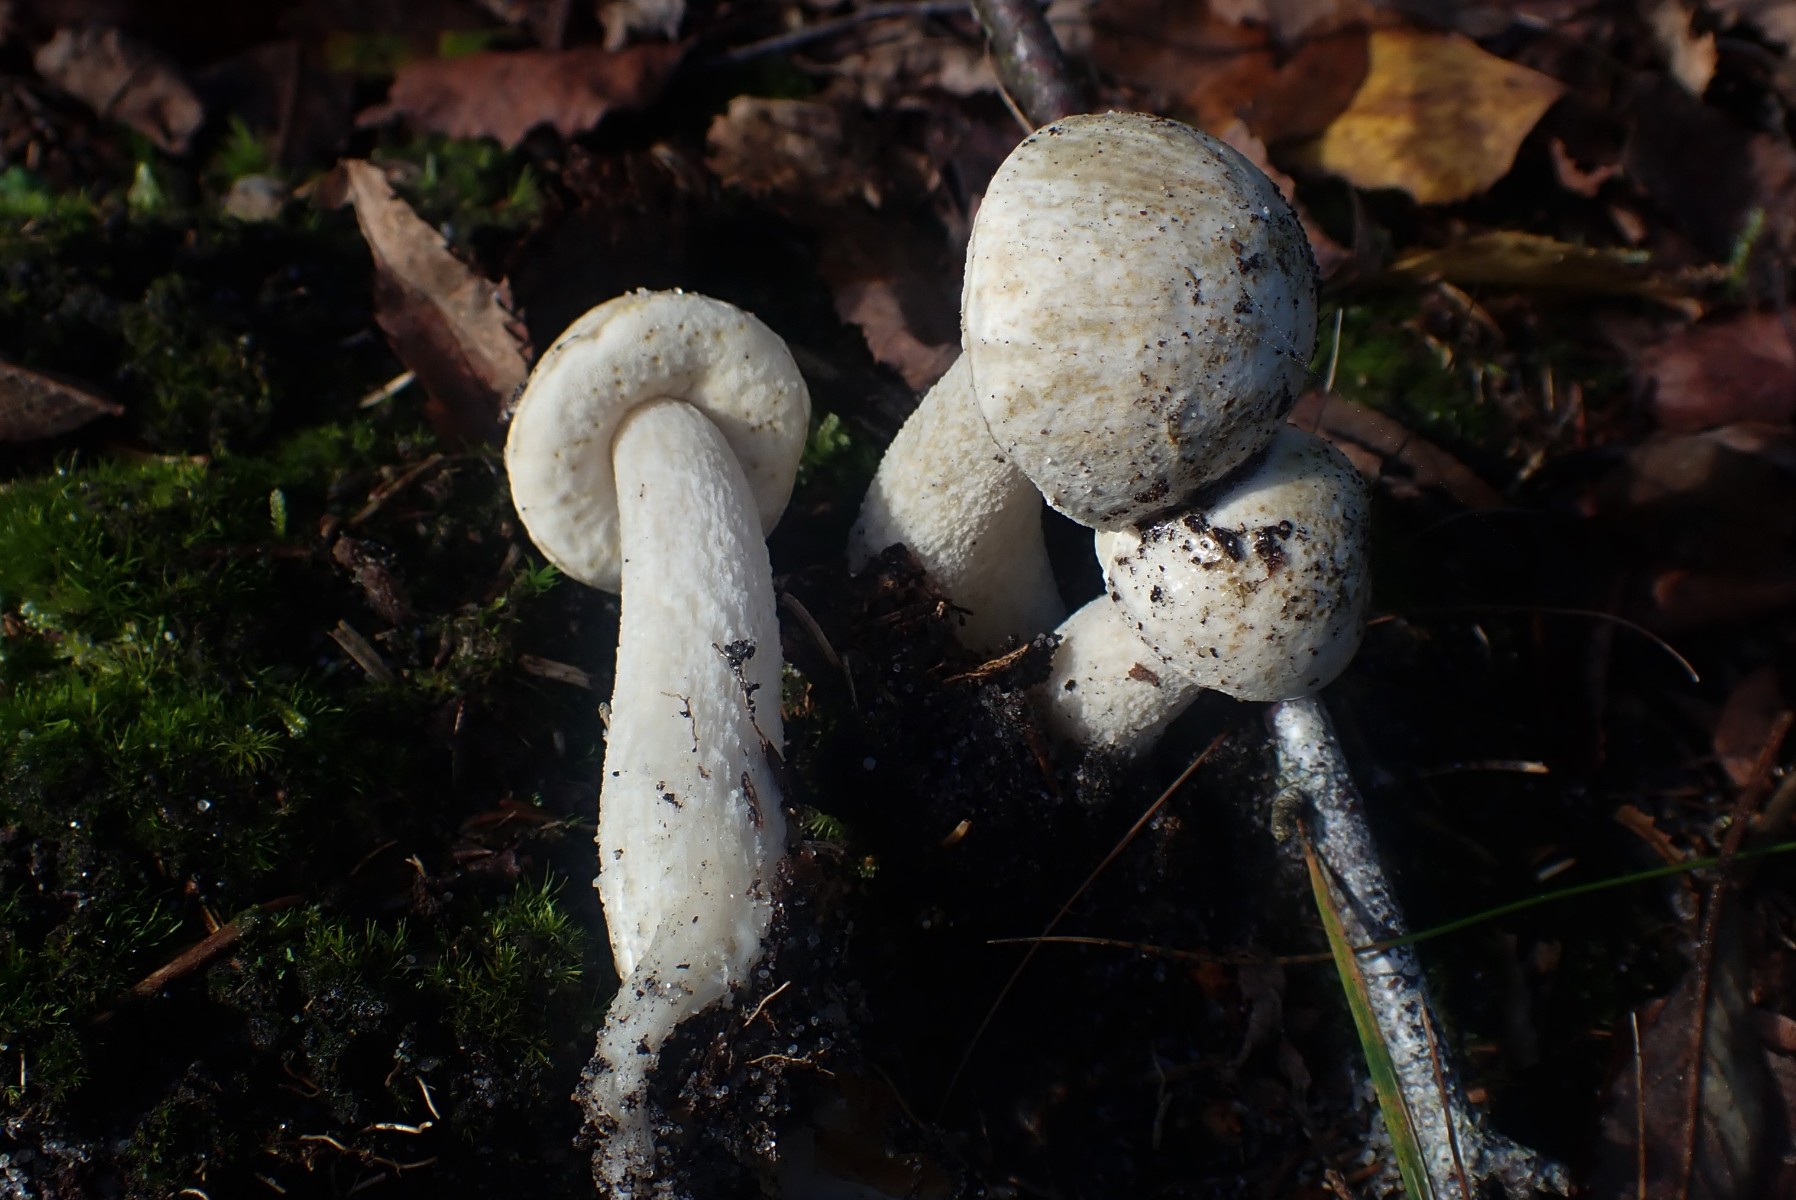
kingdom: Fungi
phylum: Basidiomycota
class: Agaricomycetes
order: Boletales
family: Boletaceae
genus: Leccinum
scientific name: Leccinum scabrum
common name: hvid skælrørhat
